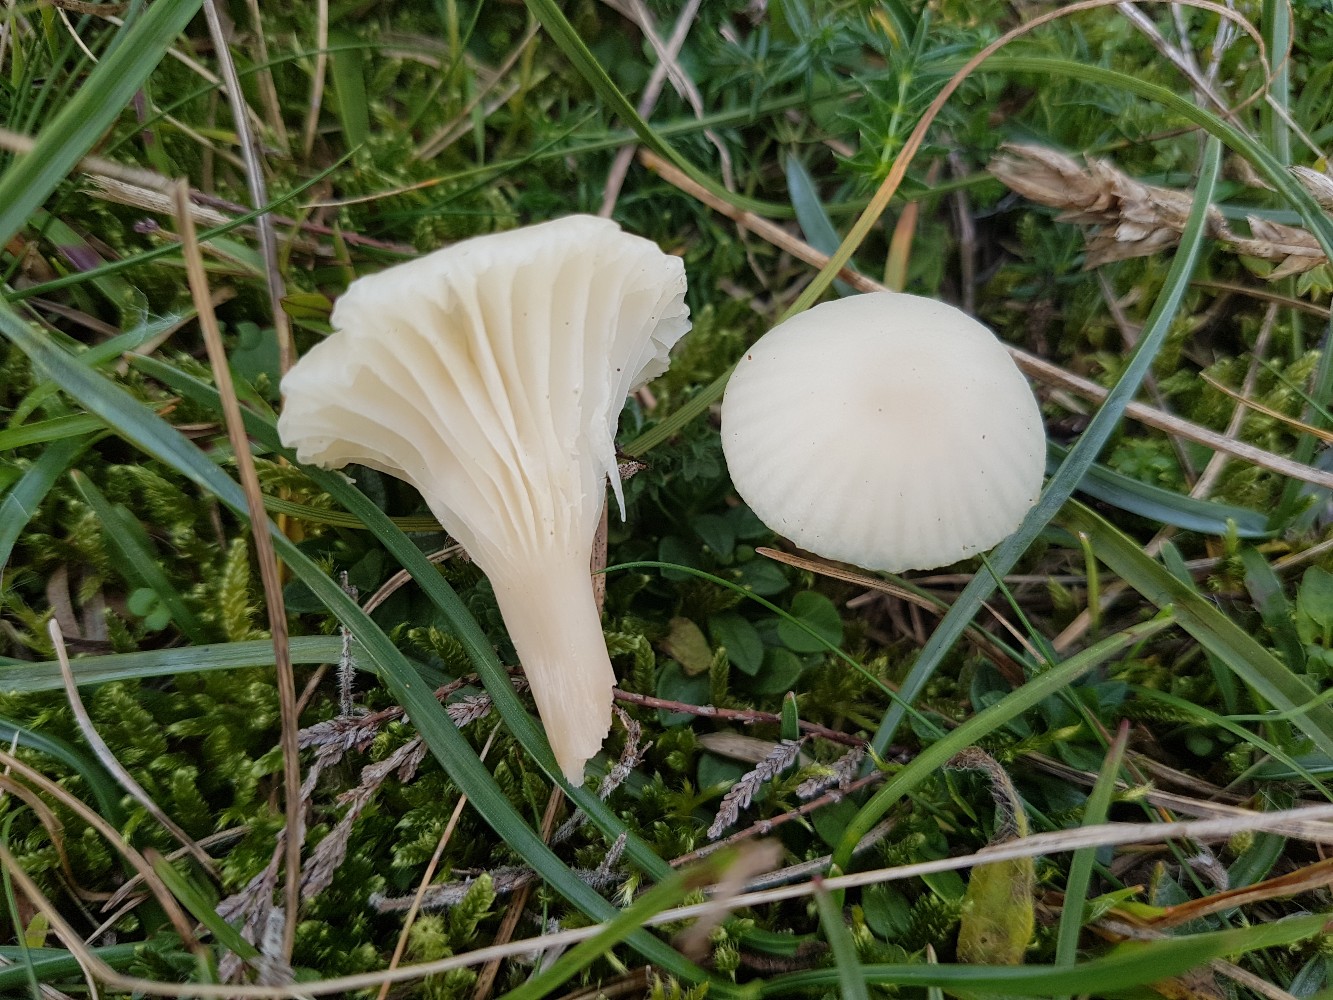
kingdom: Fungi
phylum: Basidiomycota
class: Agaricomycetes
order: Agaricales
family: Hygrophoraceae
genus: Cuphophyllus
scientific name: Cuphophyllus virgineus
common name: snehvid vokshat
